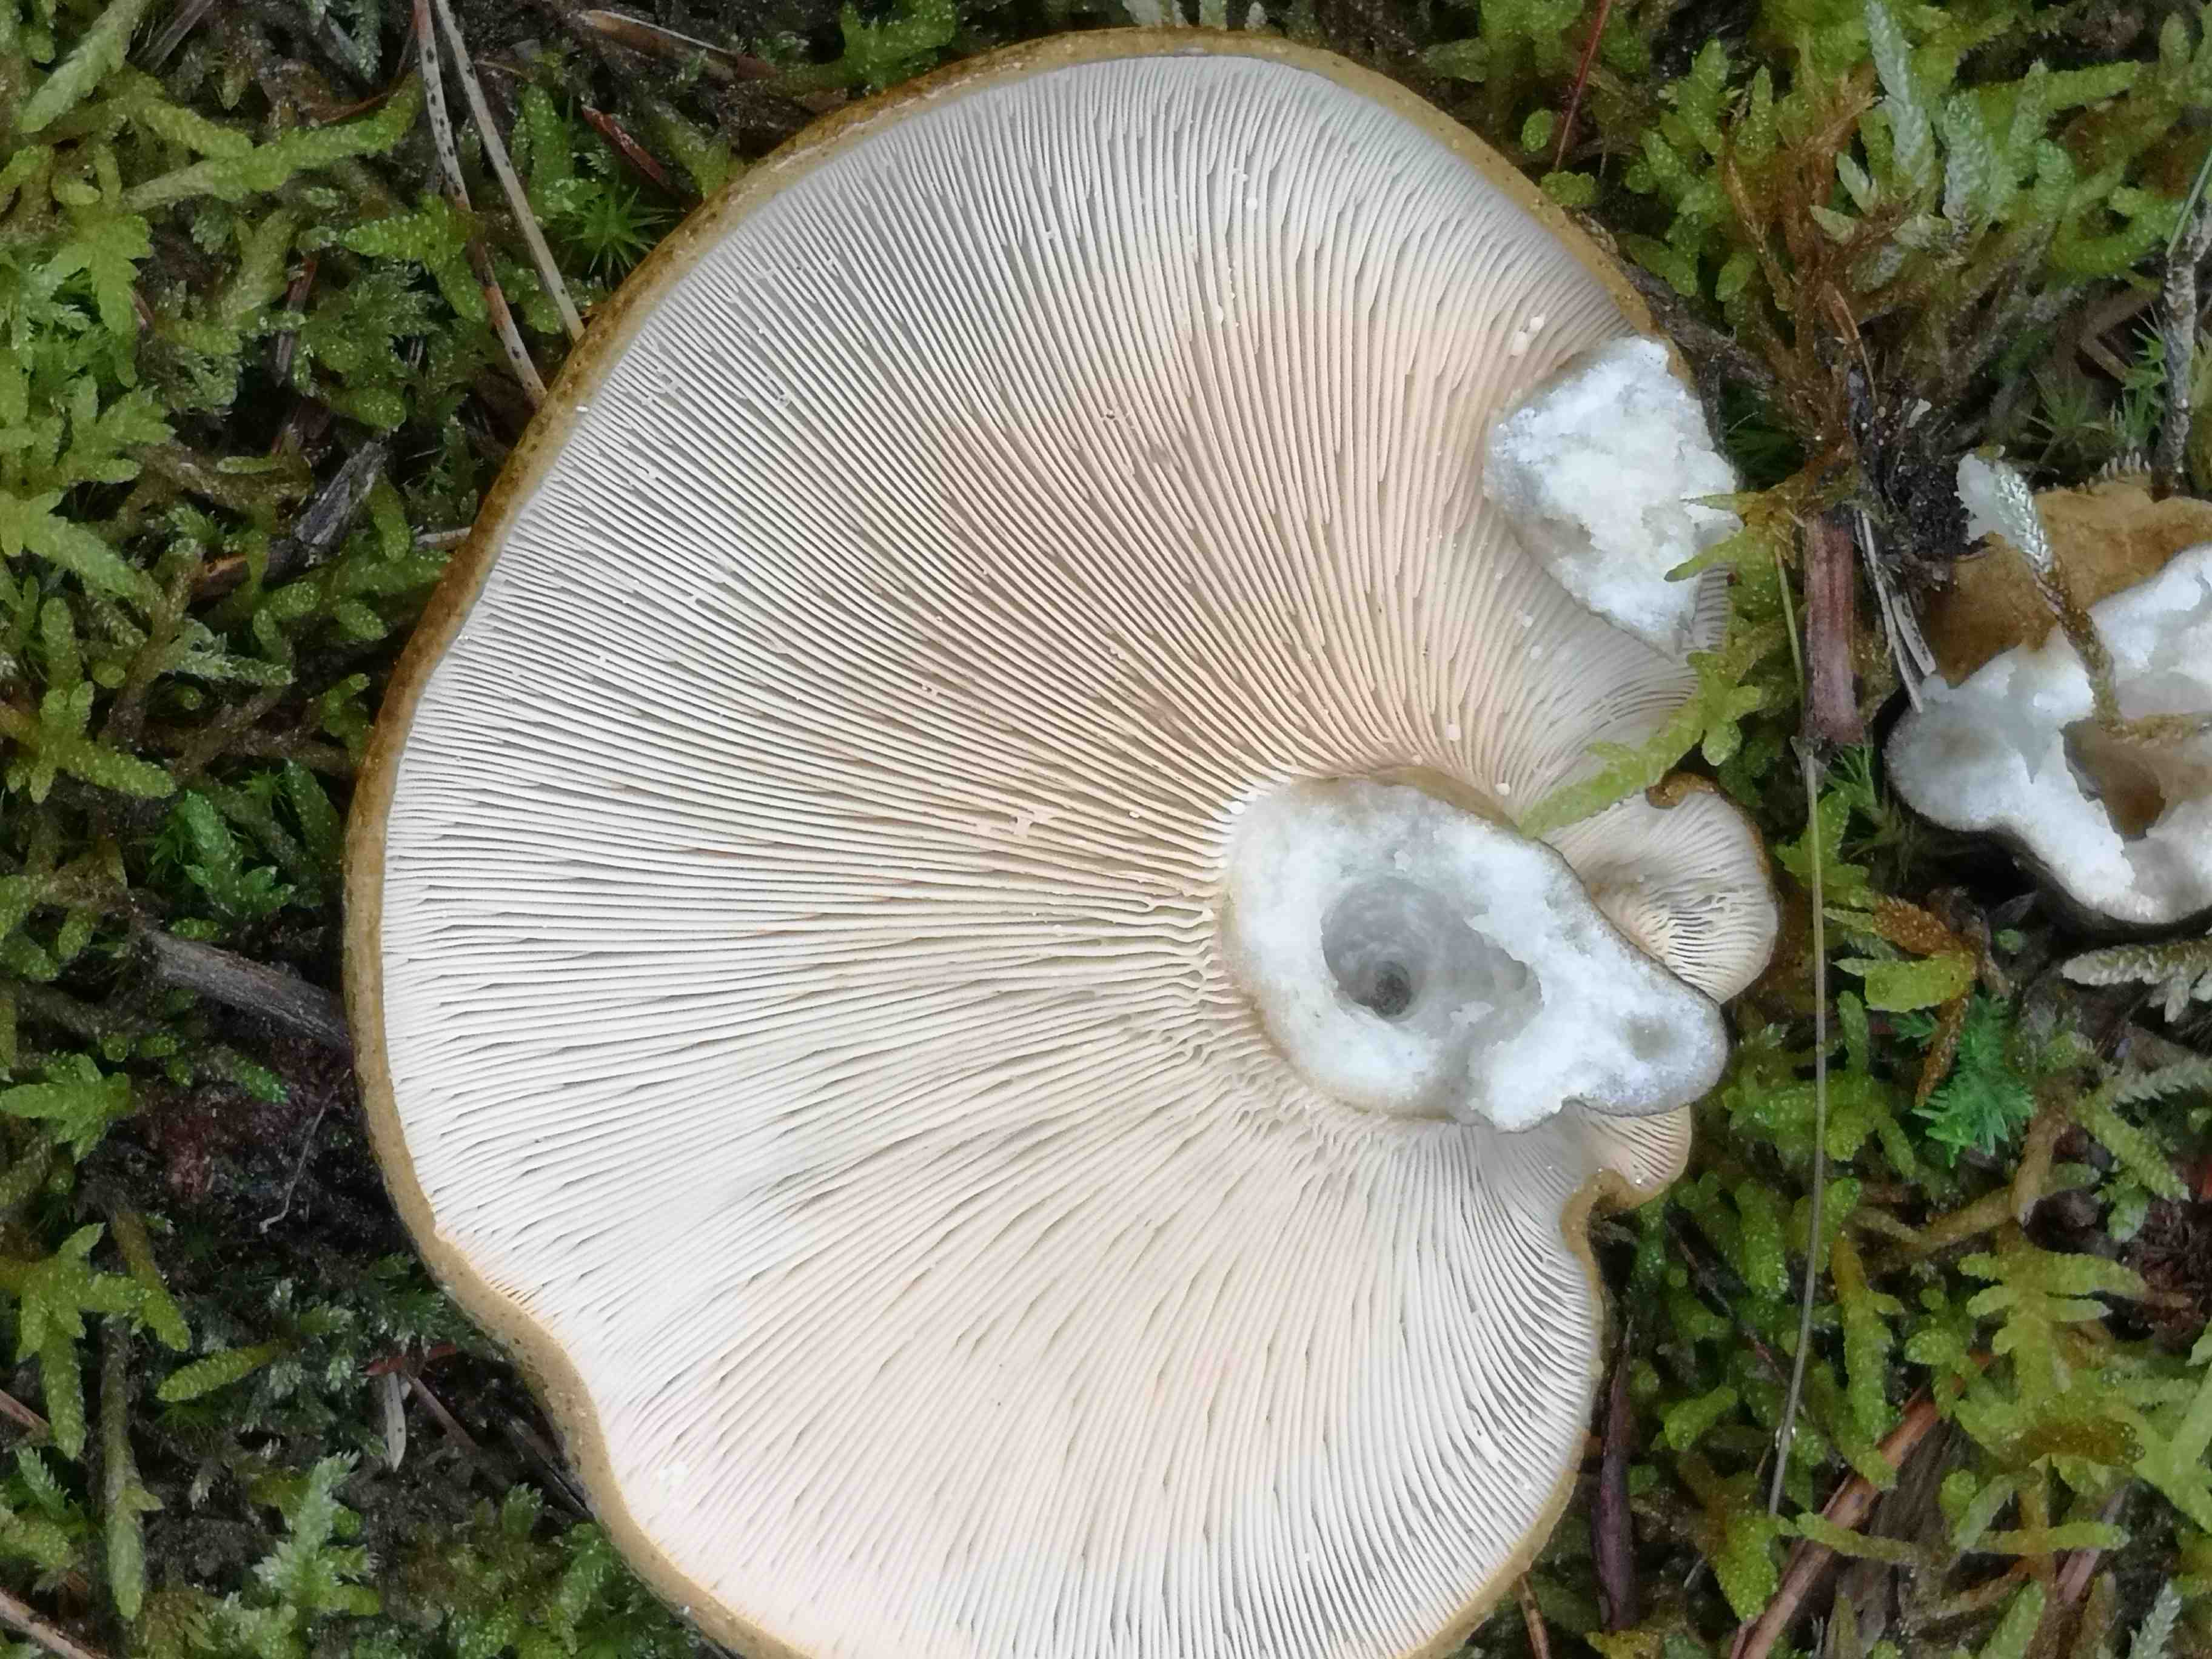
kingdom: Fungi
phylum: Basidiomycota
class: Agaricomycetes
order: Russulales
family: Russulaceae
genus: Lactarius
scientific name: Lactarius necator
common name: manddraber-mælkehat
